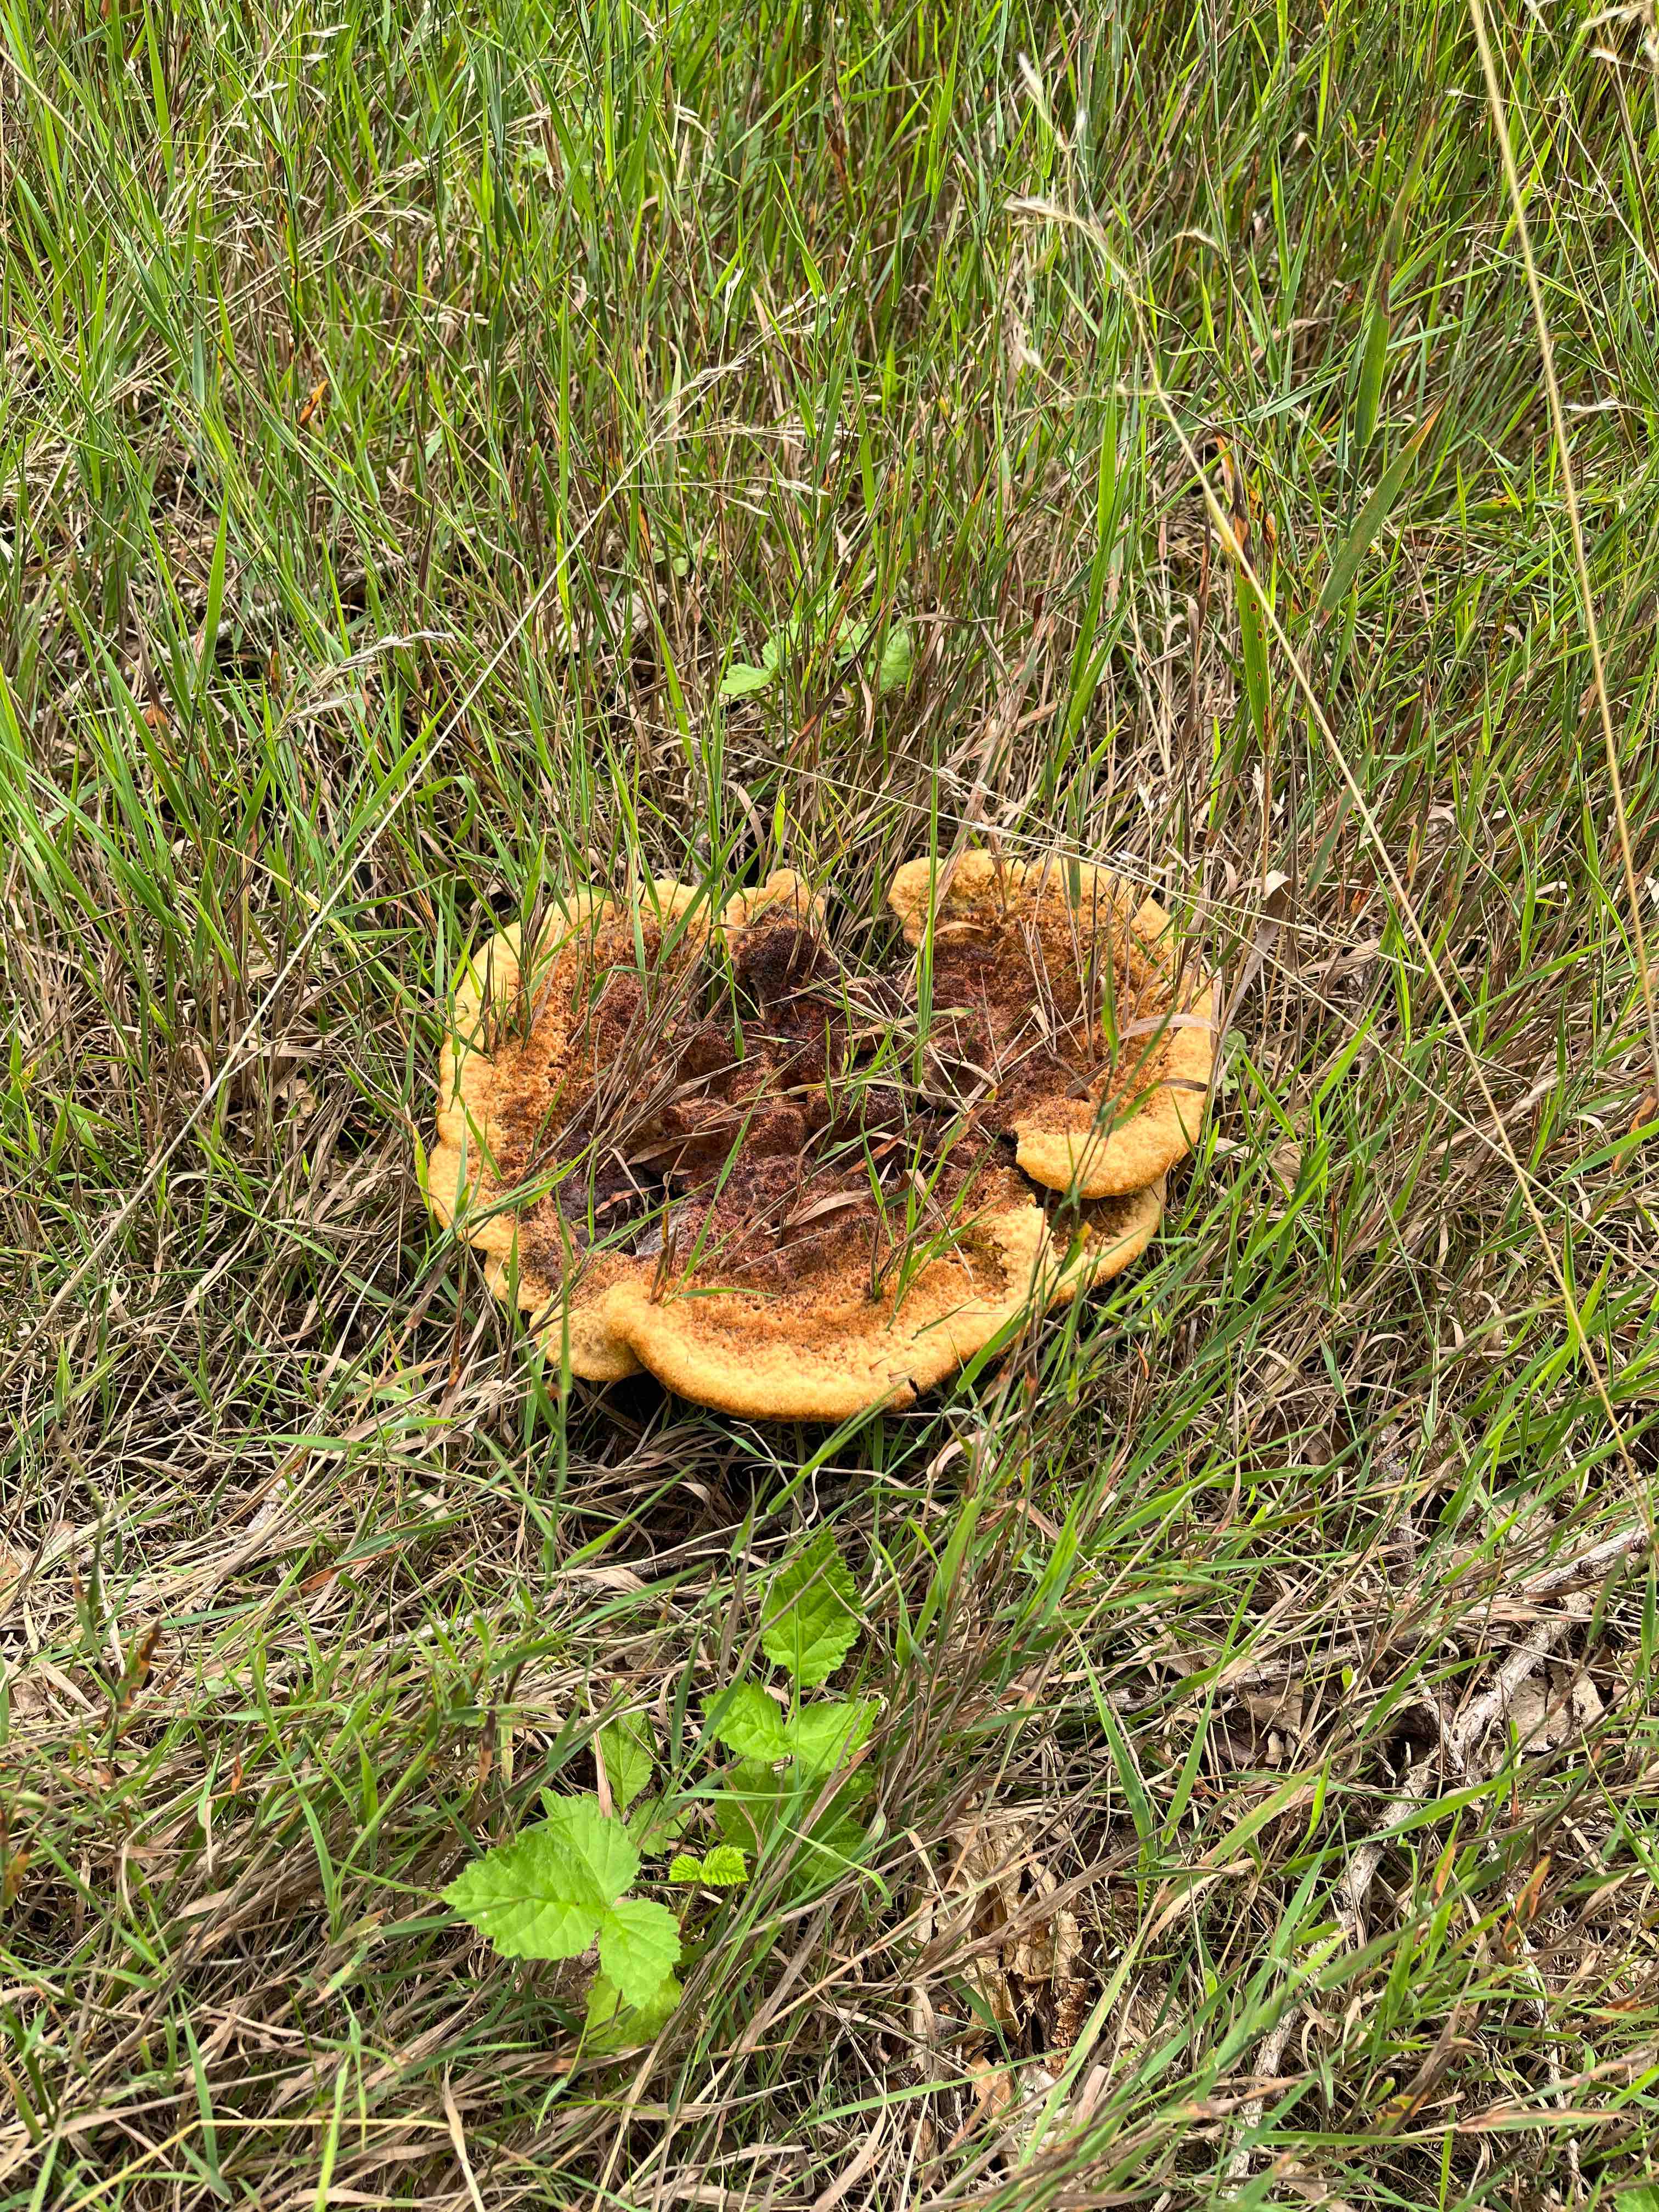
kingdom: Fungi
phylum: Basidiomycota
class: Agaricomycetes
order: Polyporales
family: Laetiporaceae
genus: Phaeolus
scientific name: Phaeolus schweinitzii
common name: brunporesvamp
